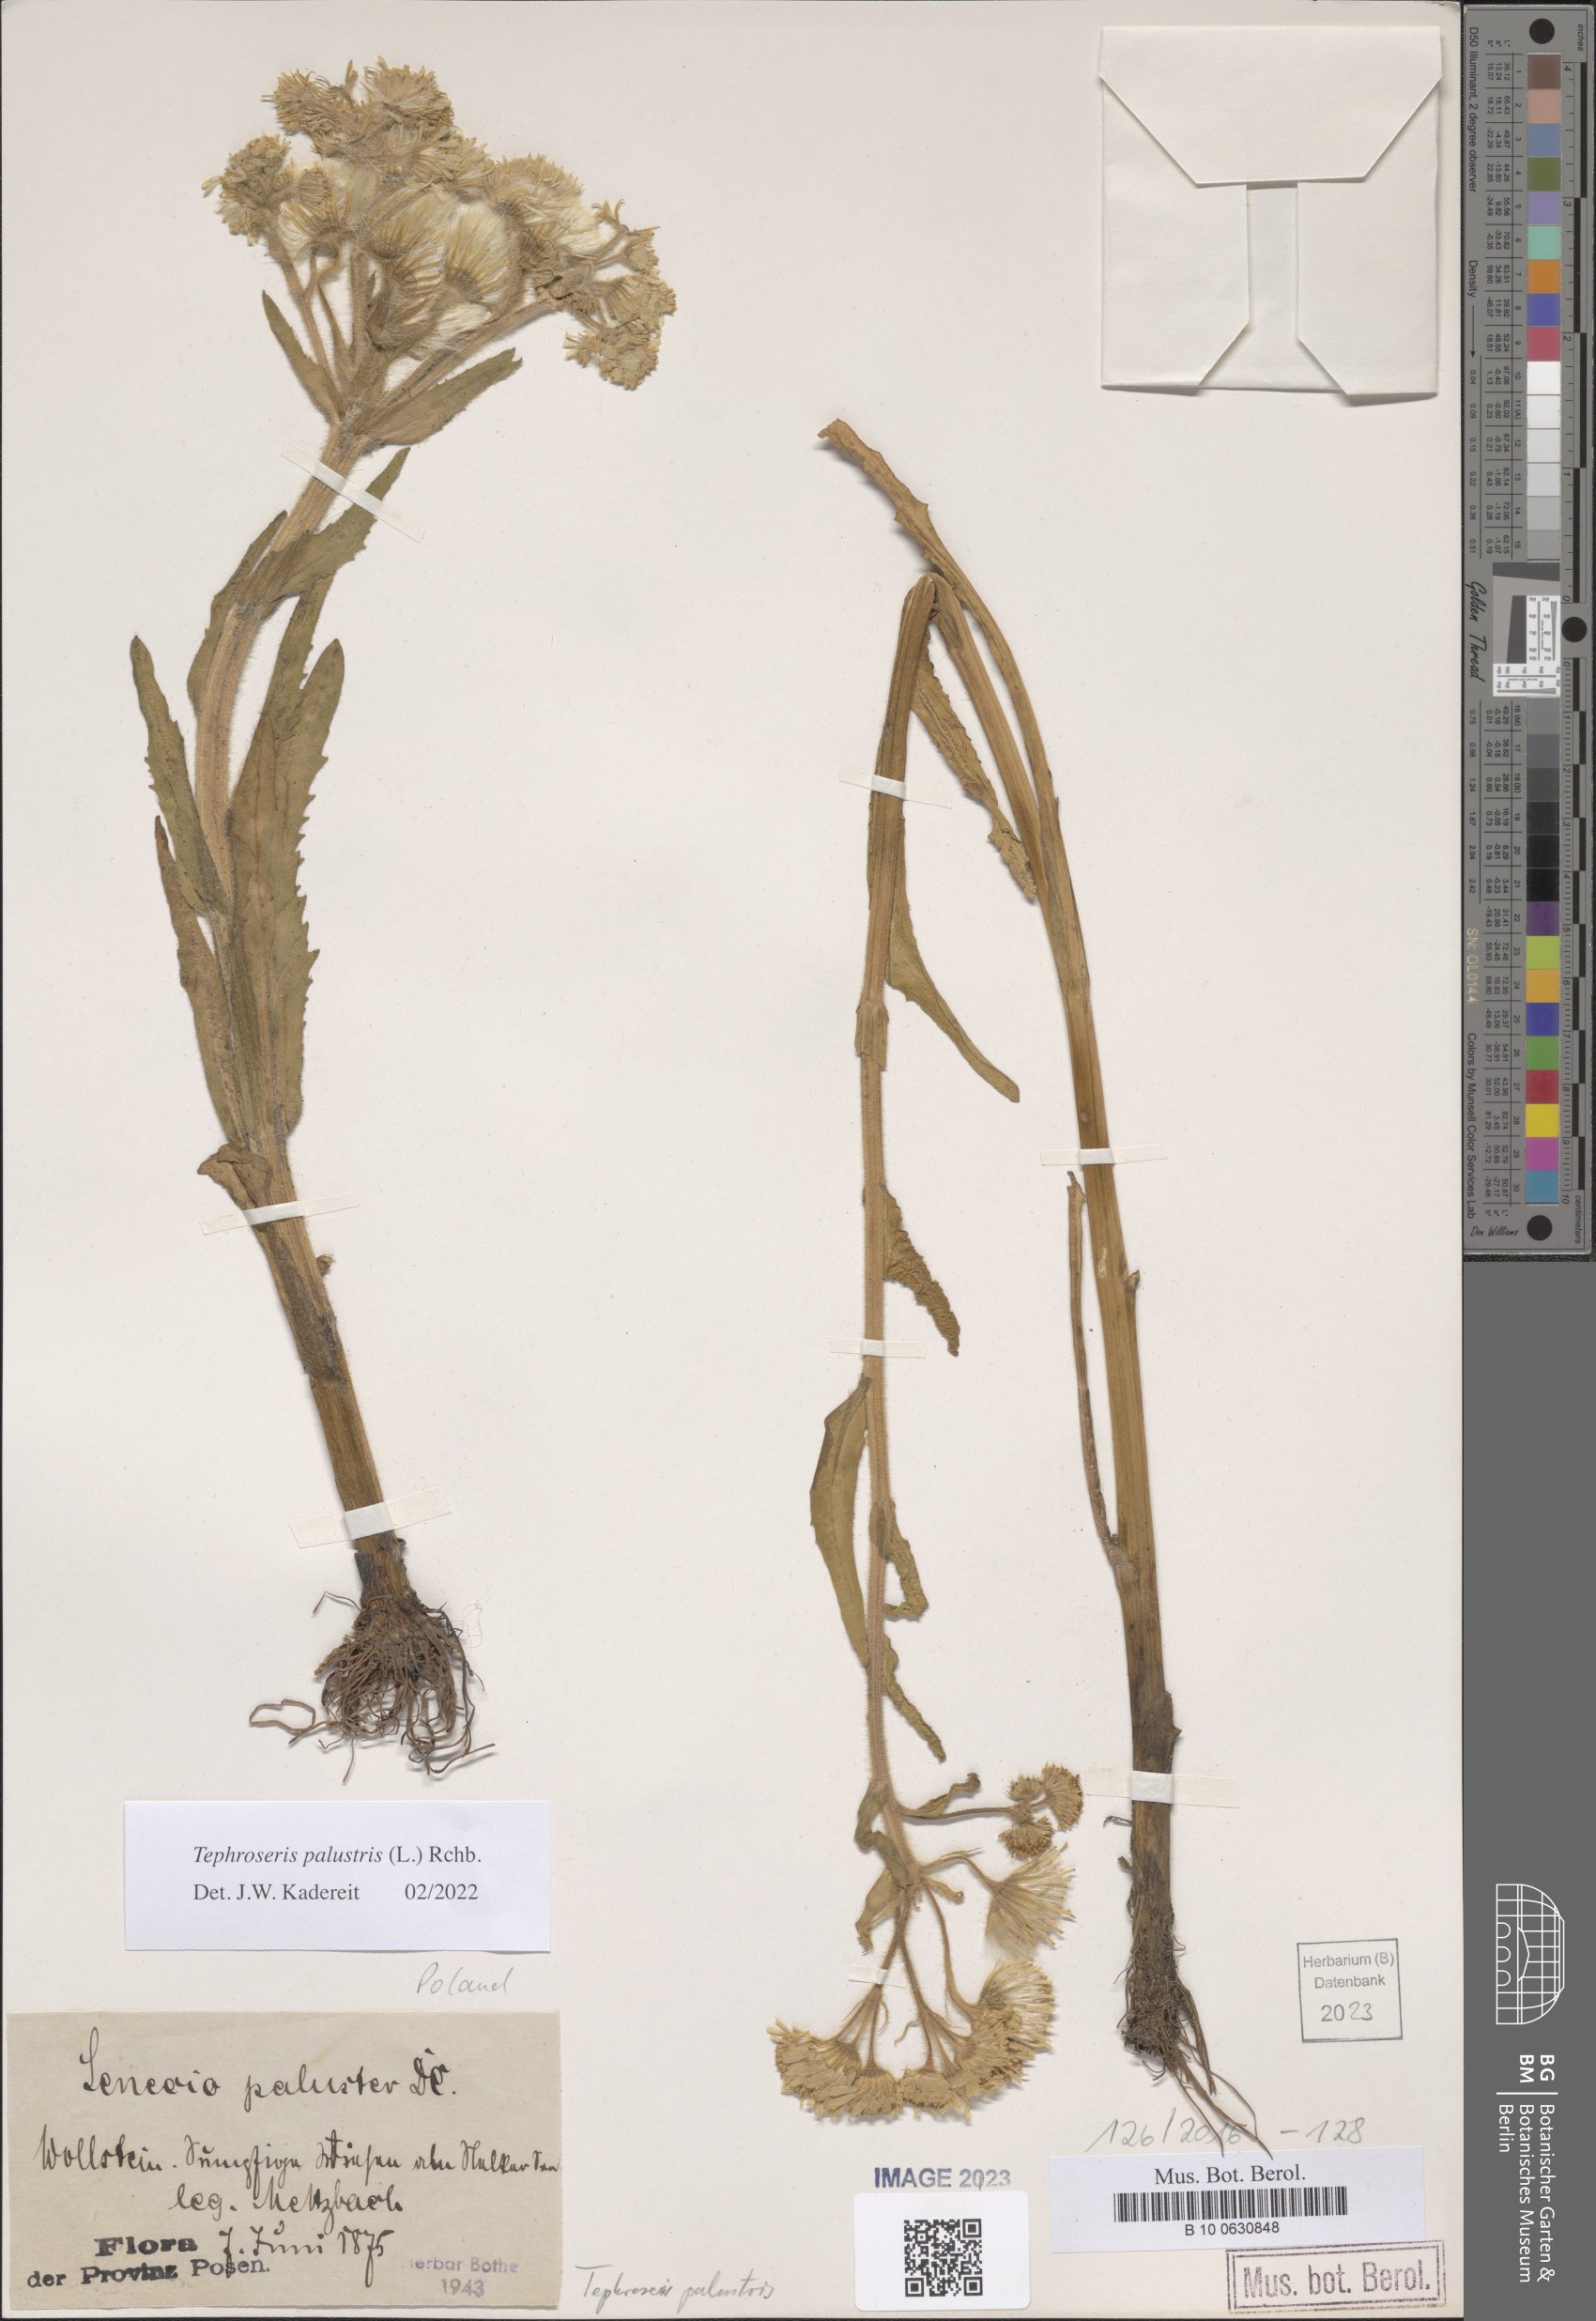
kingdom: Plantae
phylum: Tracheophyta
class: Magnoliopsida
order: Asterales
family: Asteraceae
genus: Tephroseris
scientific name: Tephroseris palustris
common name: Marsh fleawort
